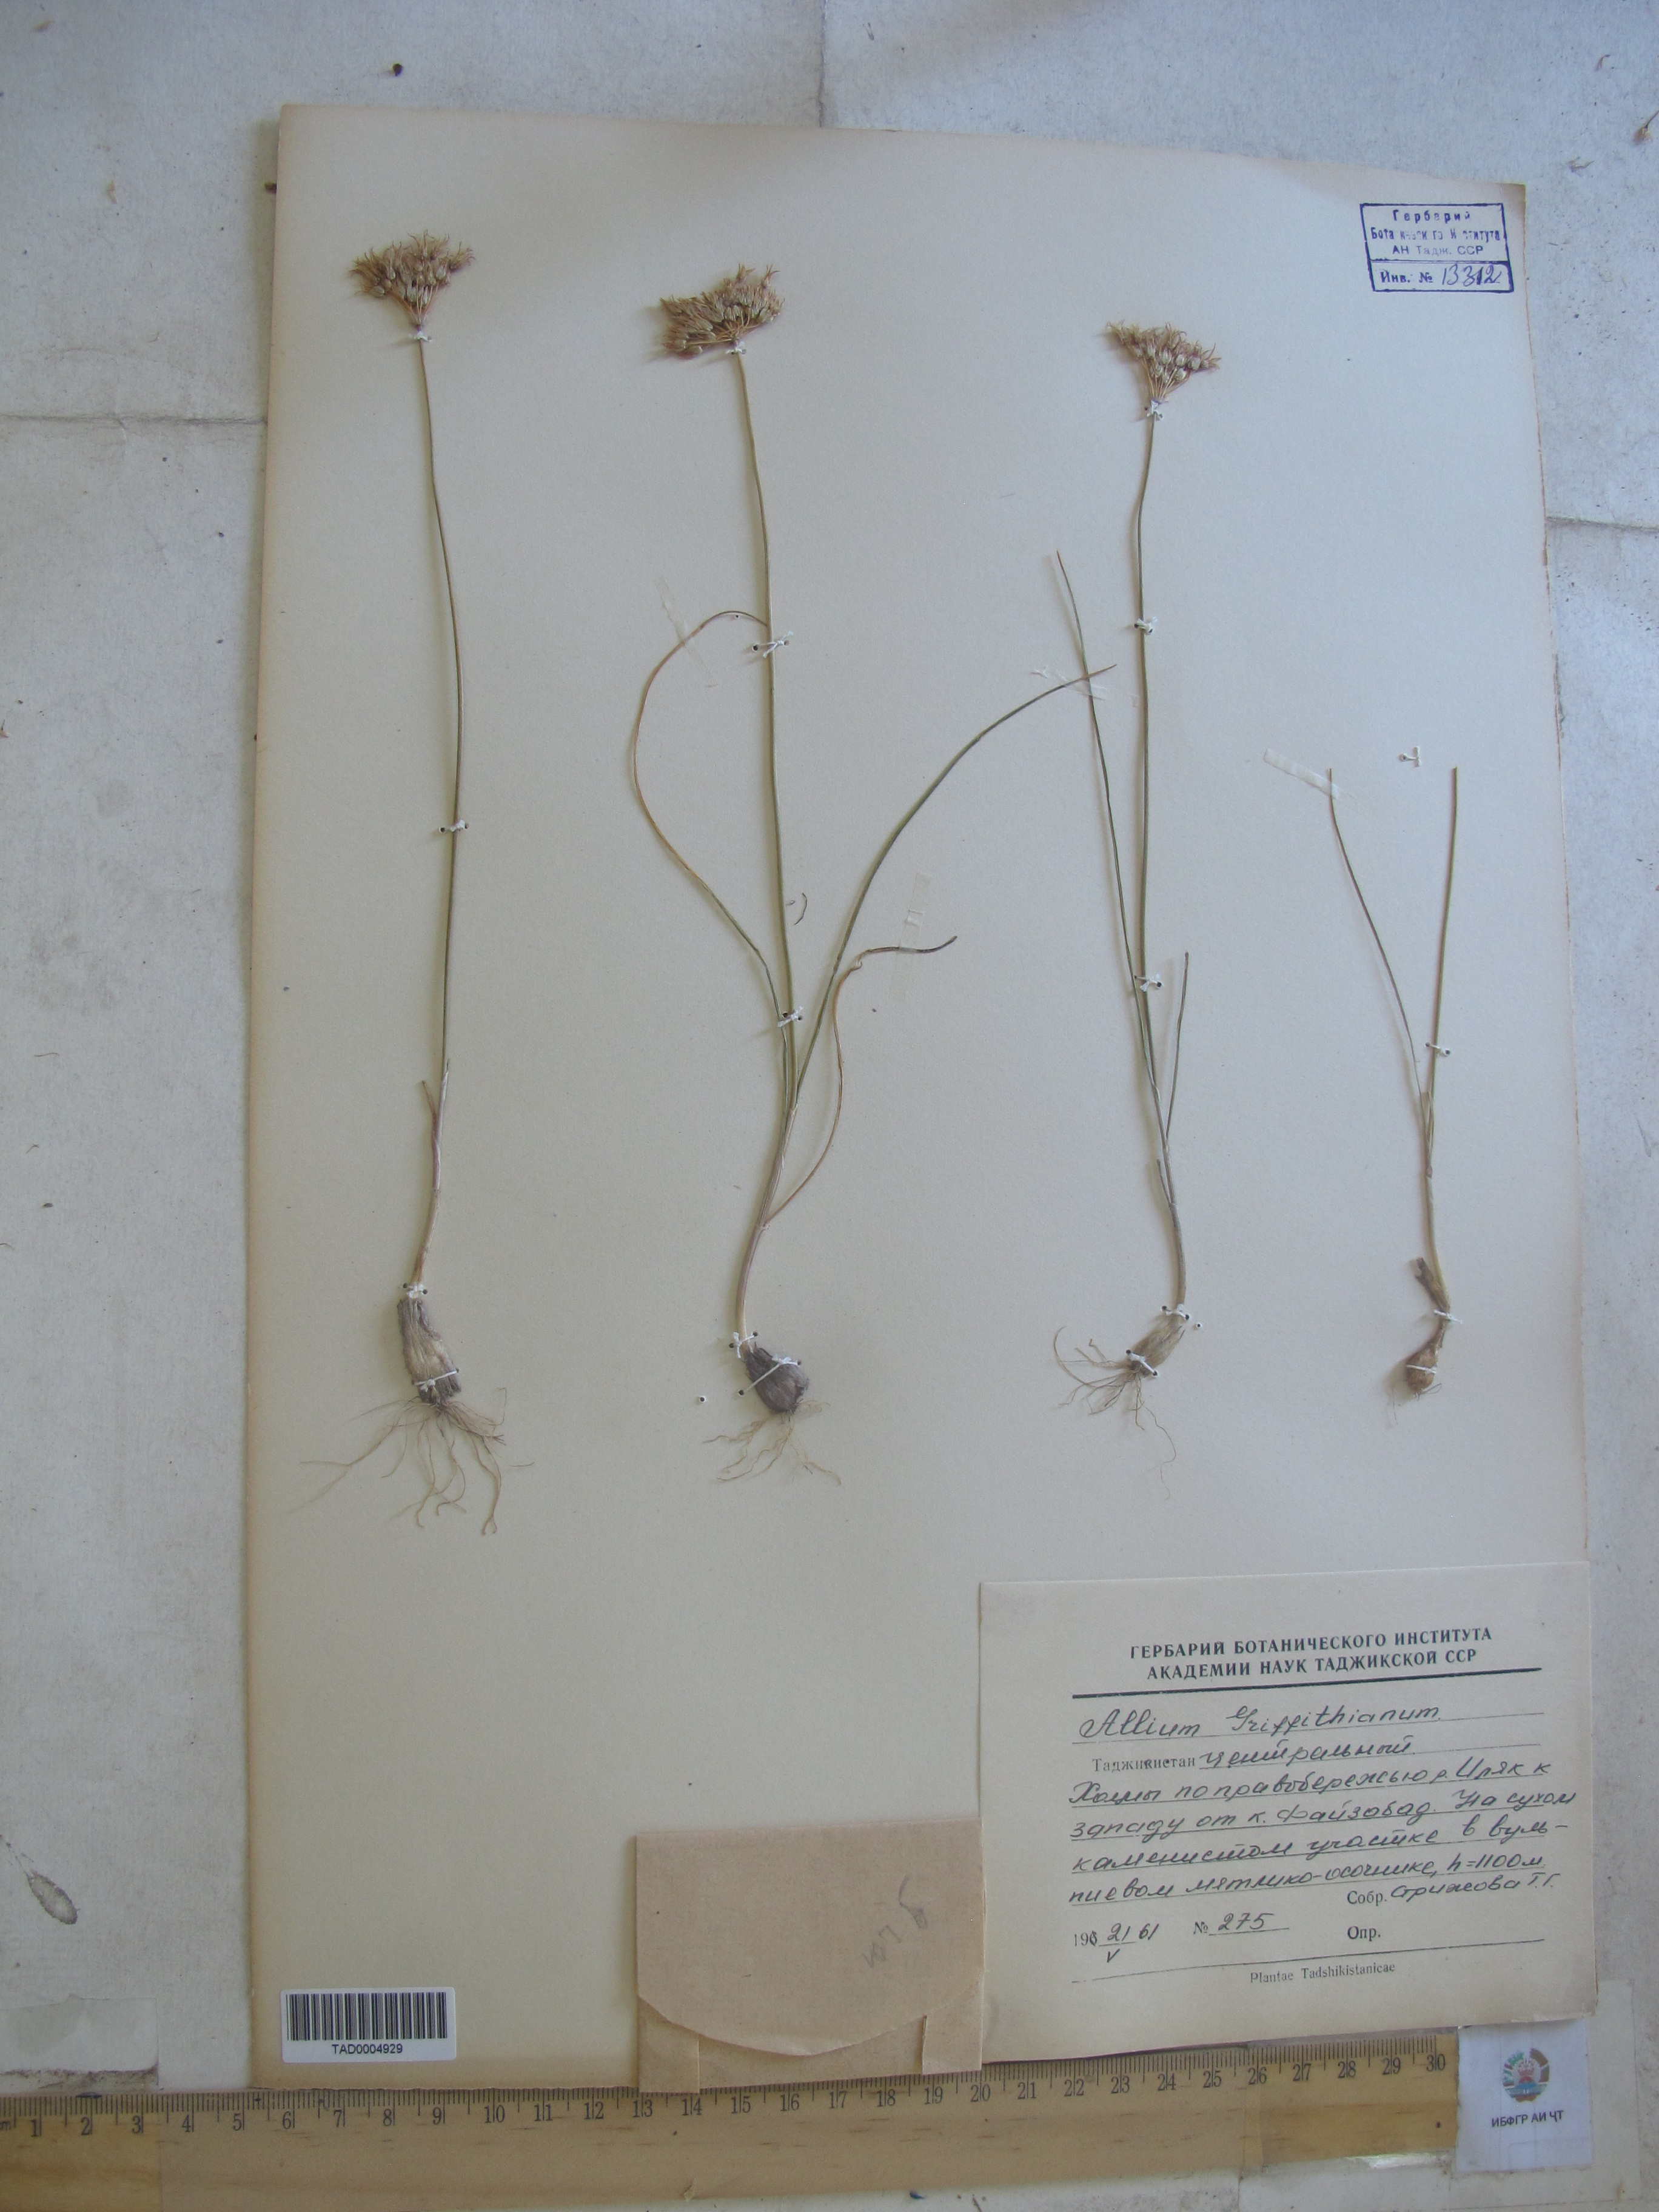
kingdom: Plantae
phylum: Tracheophyta
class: Liliopsida
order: Asparagales
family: Amaryllidaceae
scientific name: Amaryllidaceae
